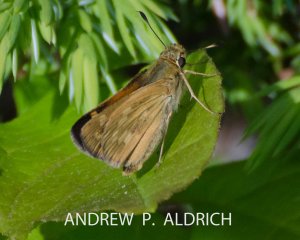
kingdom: Animalia
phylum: Arthropoda
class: Insecta
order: Lepidoptera
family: Hesperiidae
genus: Polites
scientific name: Polites
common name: Long Dash Skipper
